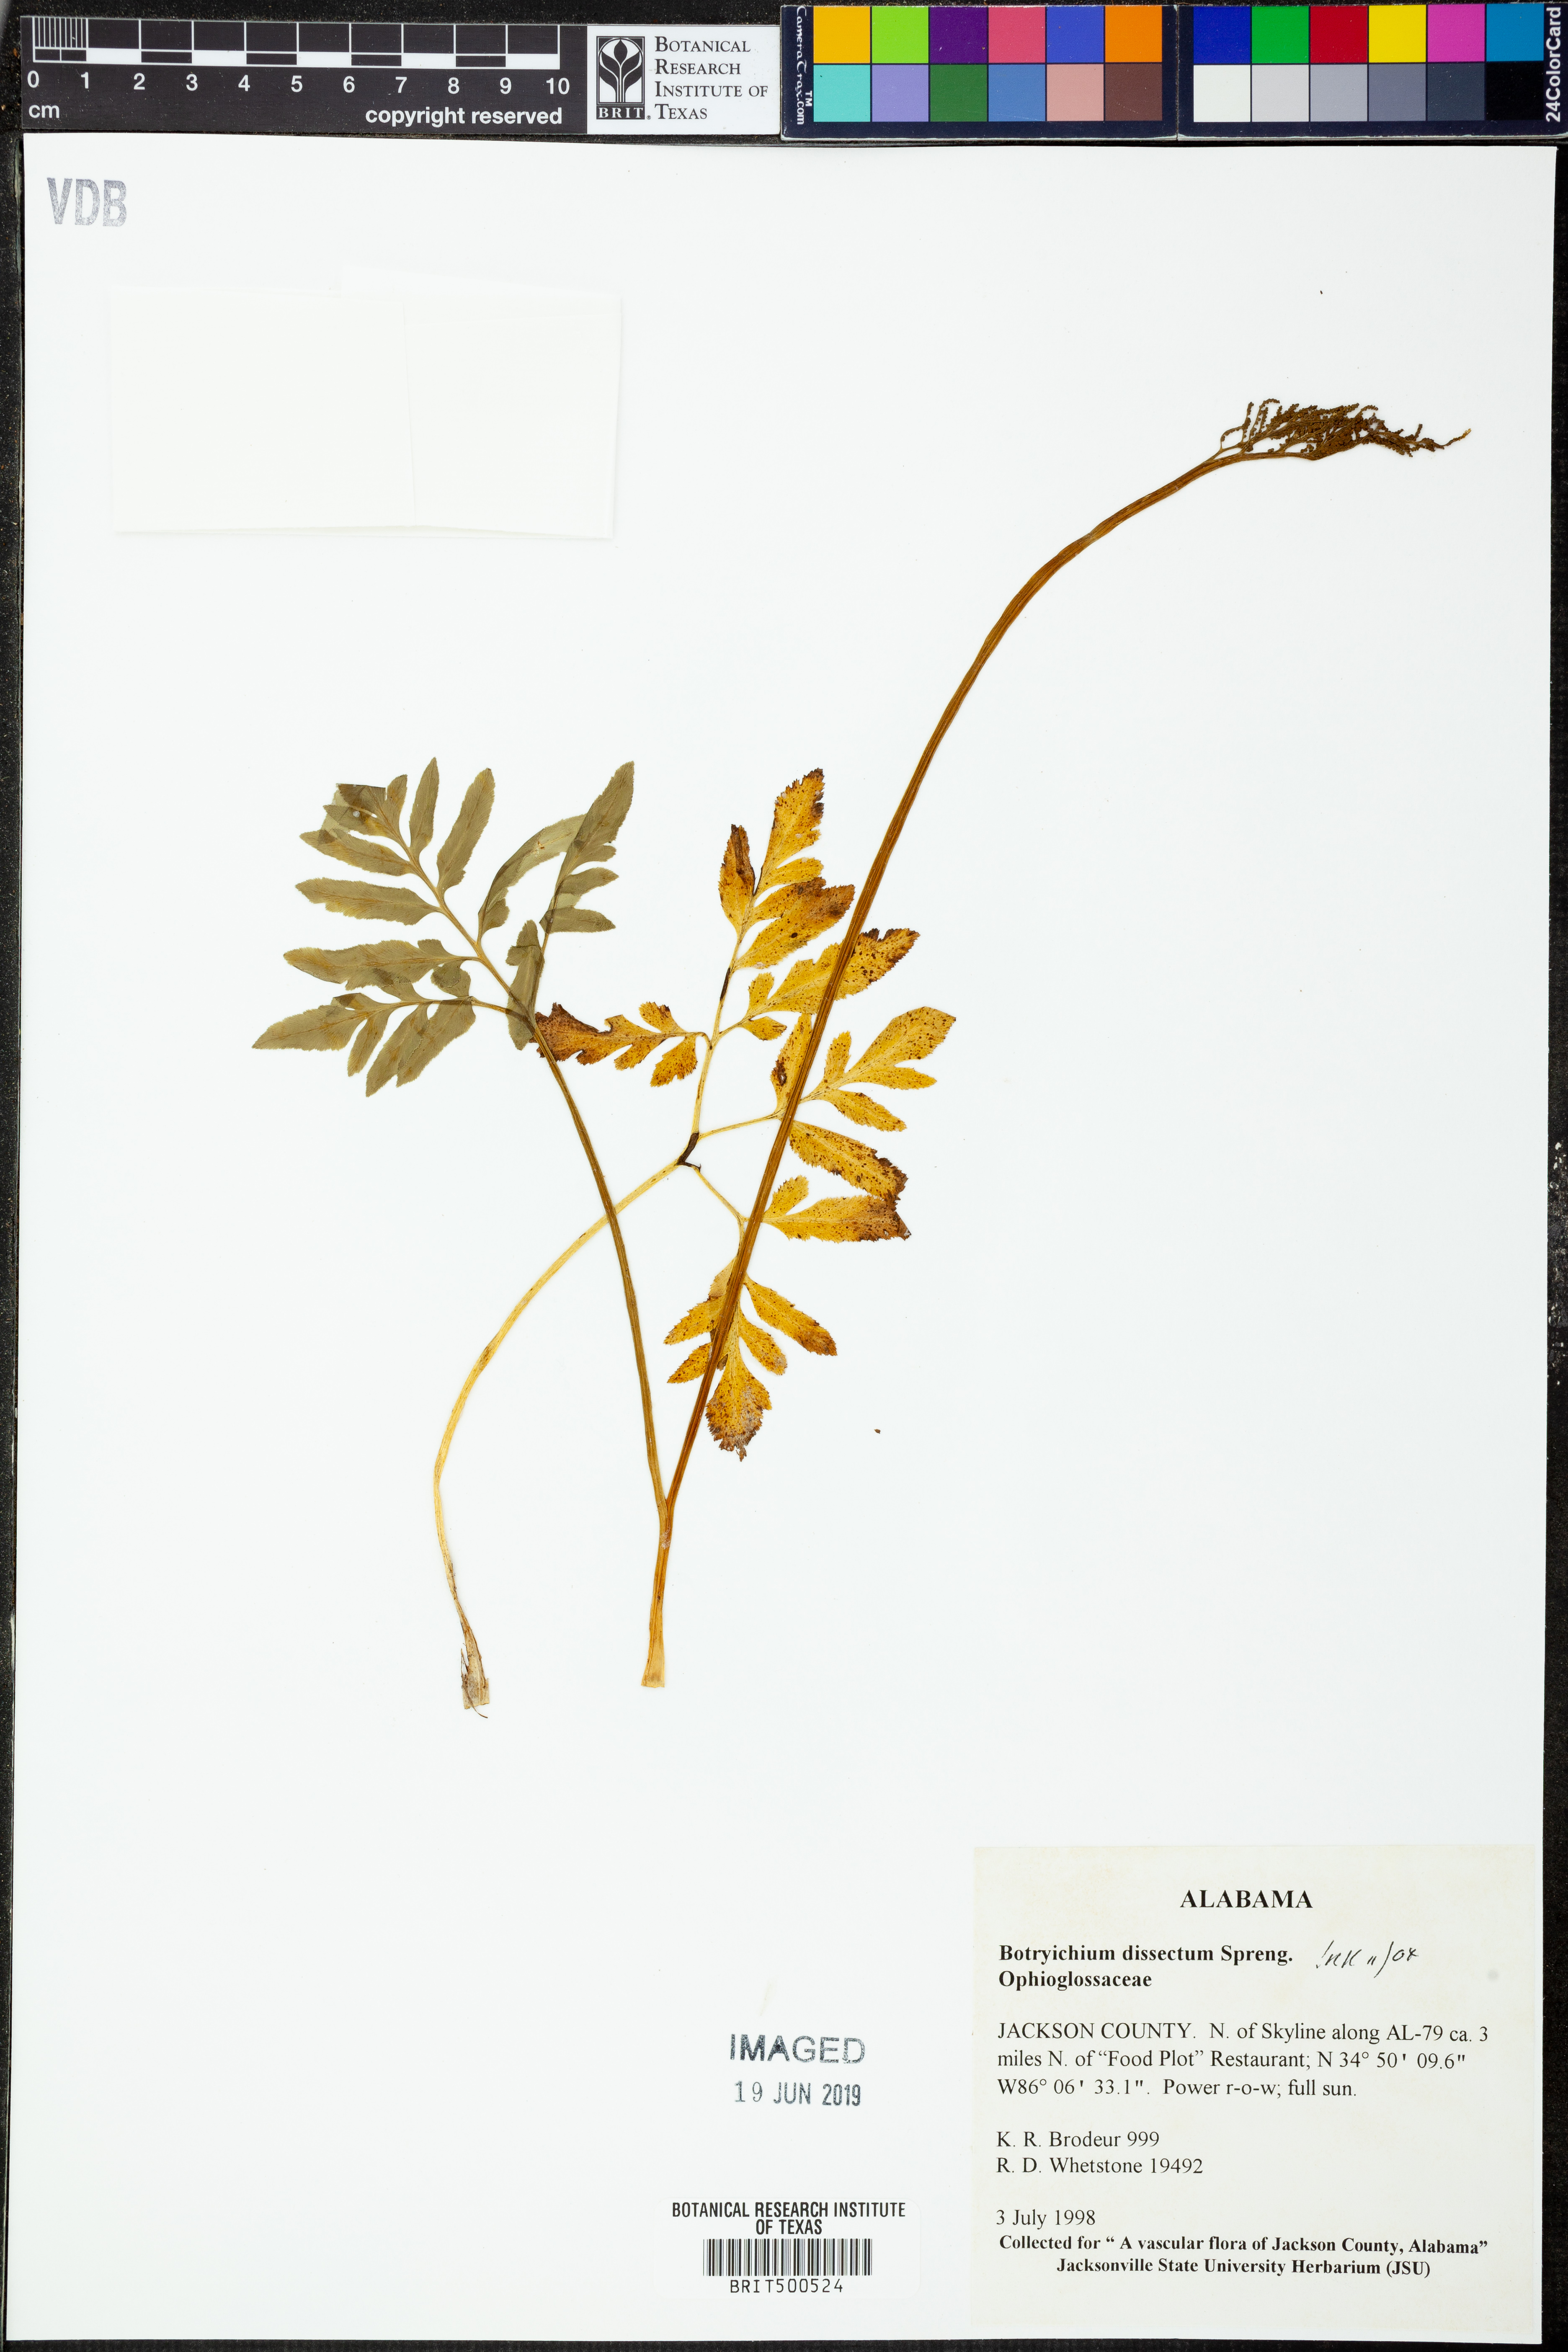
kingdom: Plantae
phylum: Tracheophyta
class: Polypodiopsida
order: Ophioglossales
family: Ophioglossaceae
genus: Sceptridium
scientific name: Sceptridium dissectum
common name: Cut-leaved grapefern
